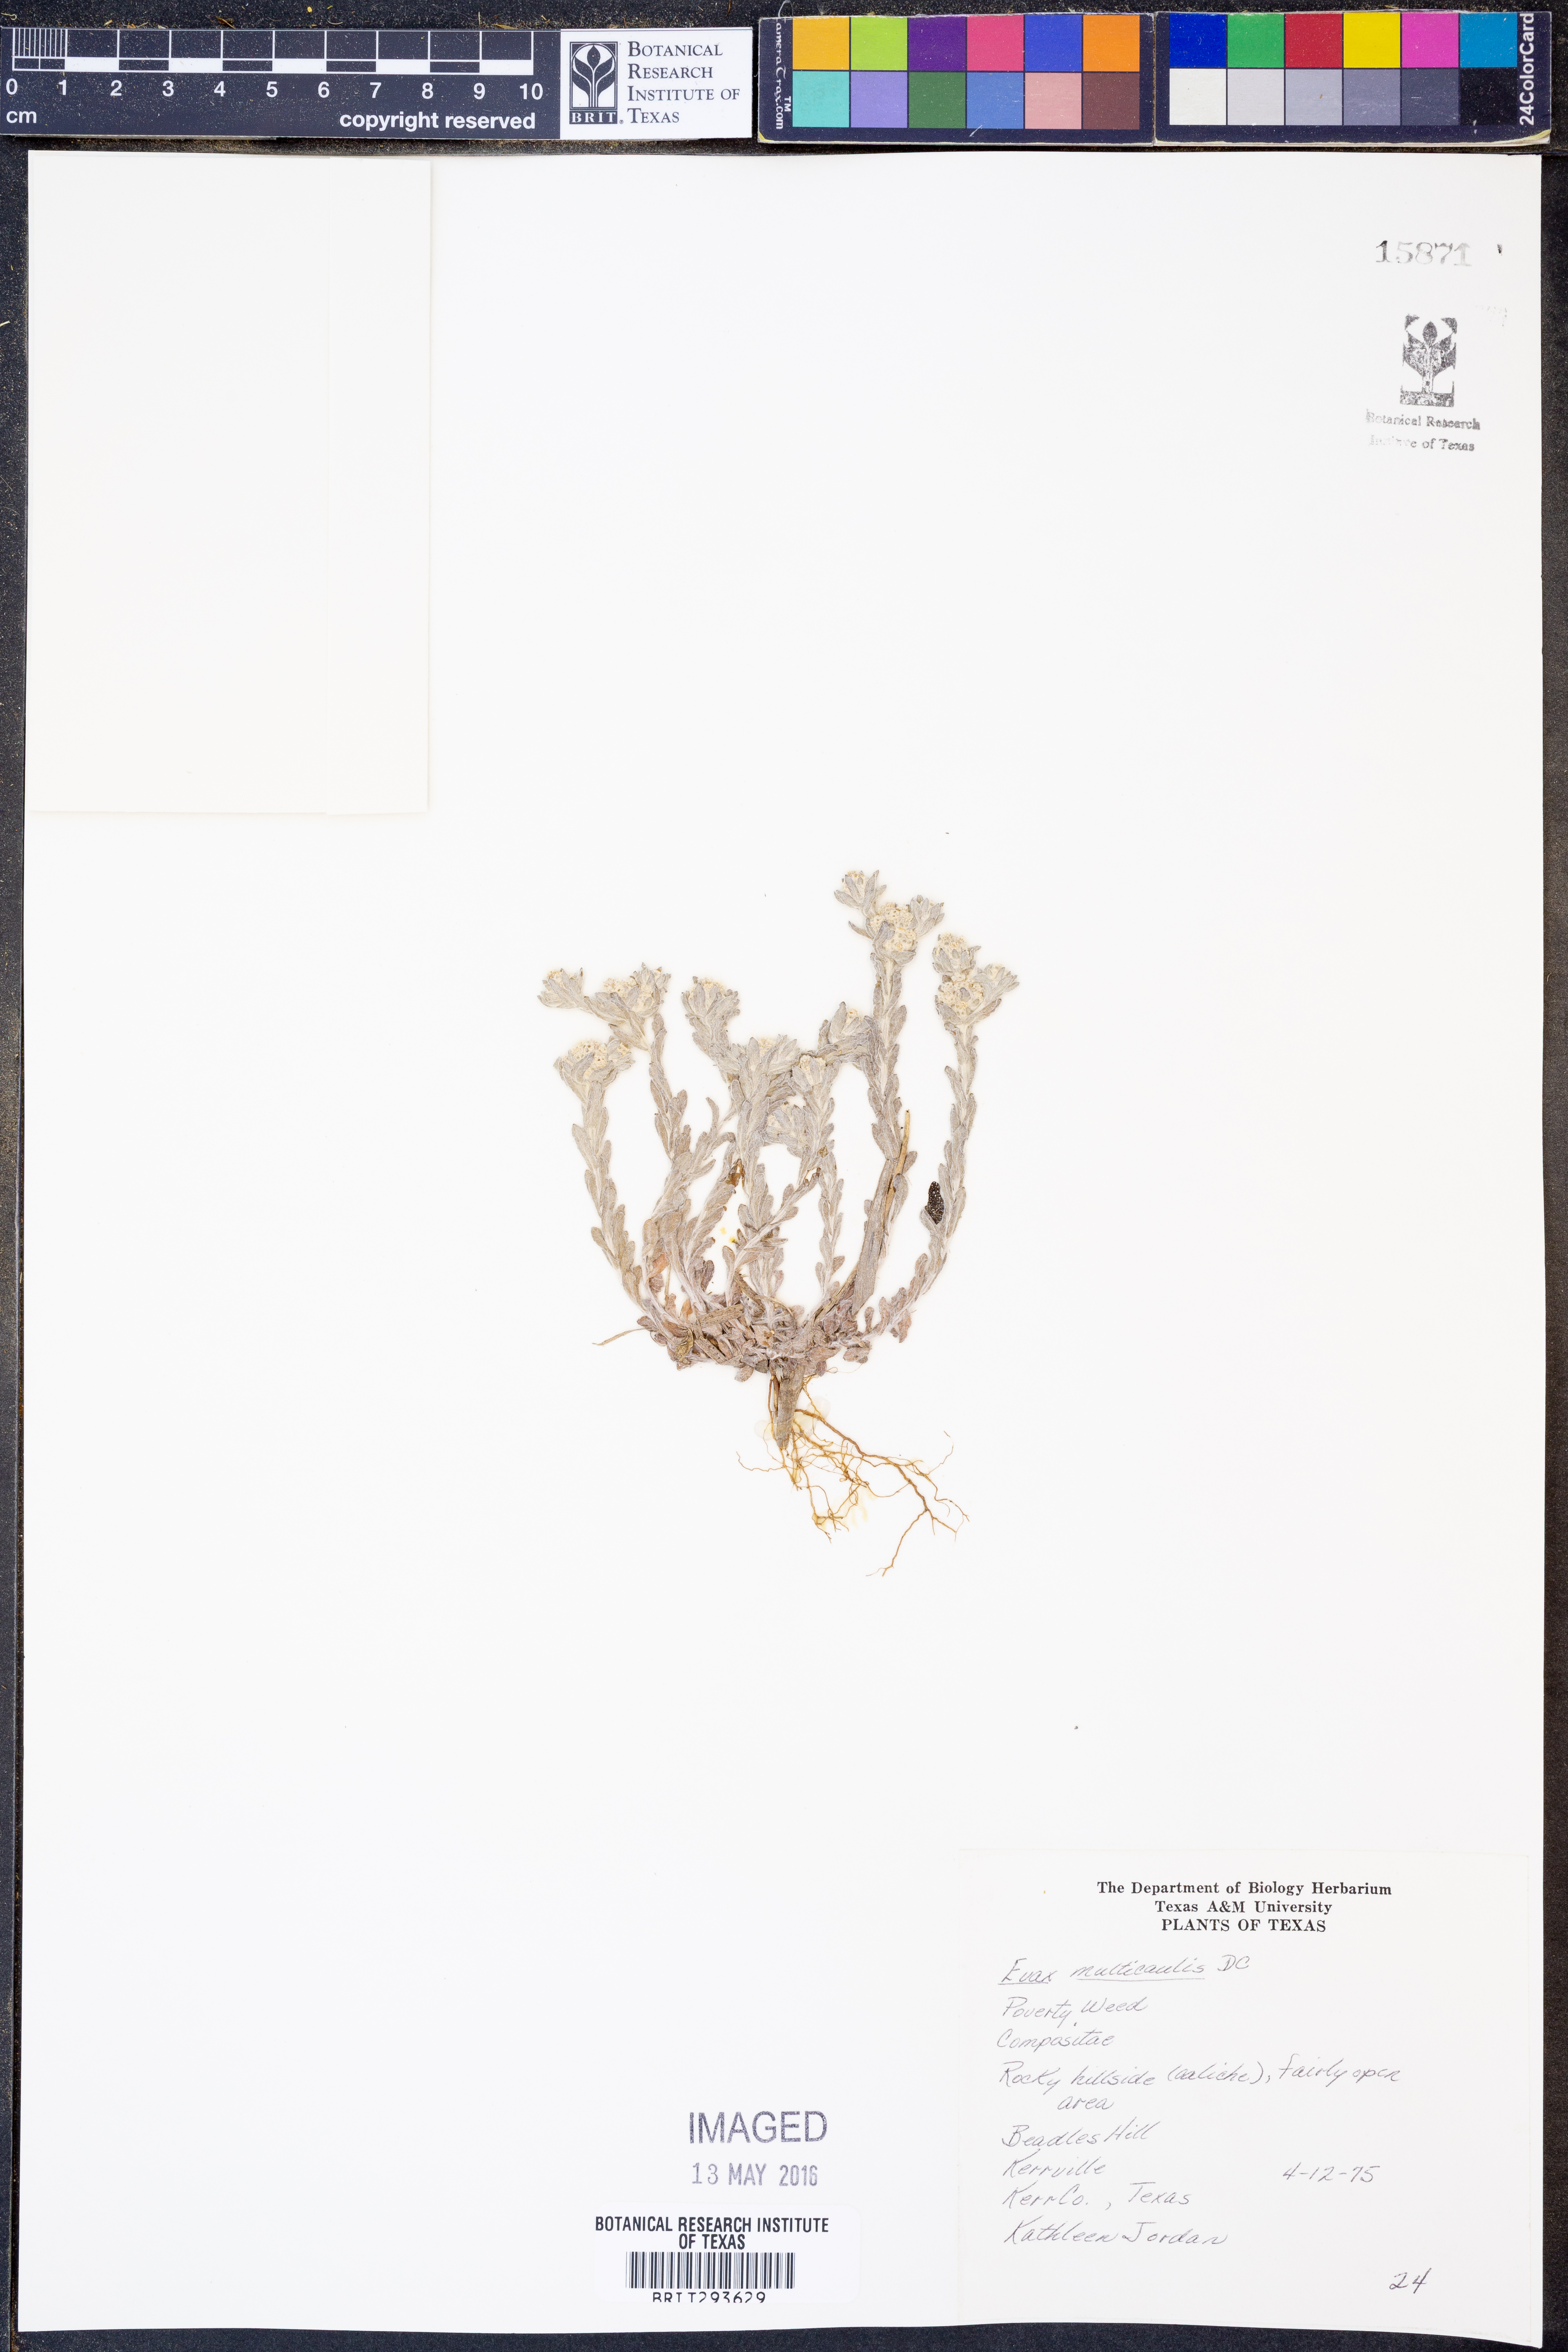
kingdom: Plantae
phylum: Tracheophyta
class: Magnoliopsida
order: Asterales
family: Asteraceae
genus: Diaperia
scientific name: Diaperia verna
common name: Many-stem rabbit-tobacco
